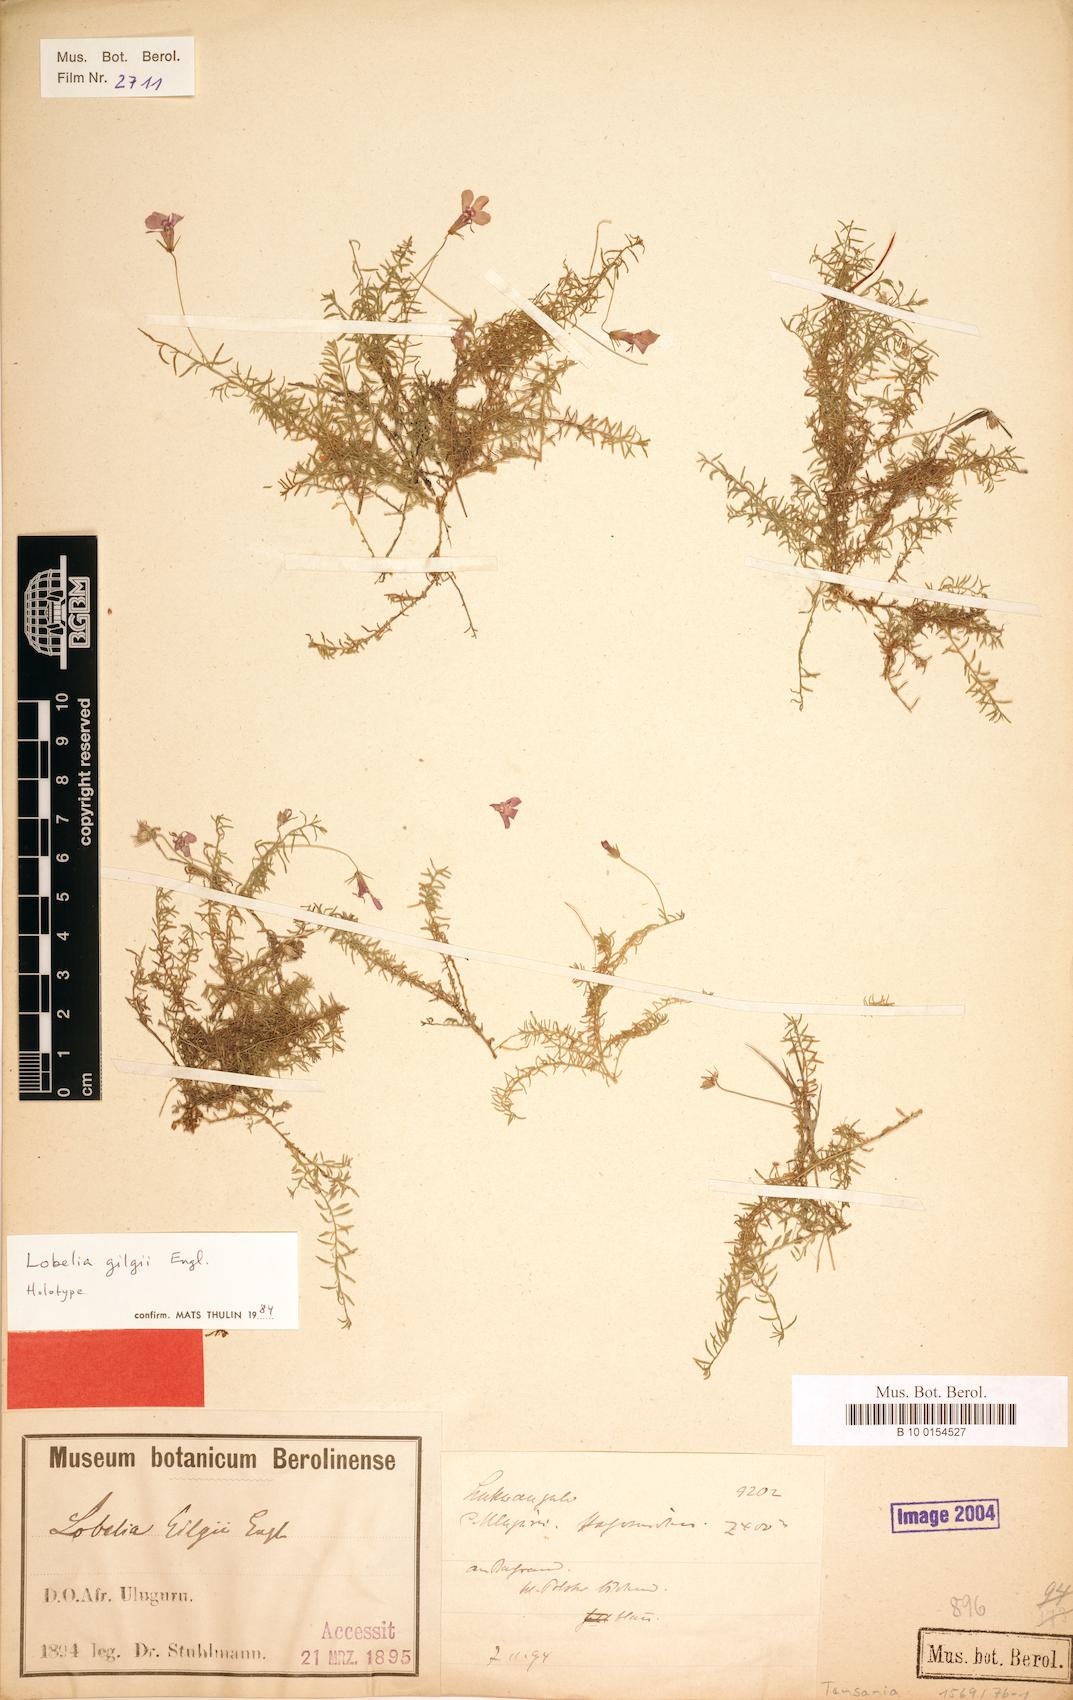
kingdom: Plantae
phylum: Tracheophyta
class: Magnoliopsida
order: Asterales
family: Campanulaceae
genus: Lobelia
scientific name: Lobelia gilgii
